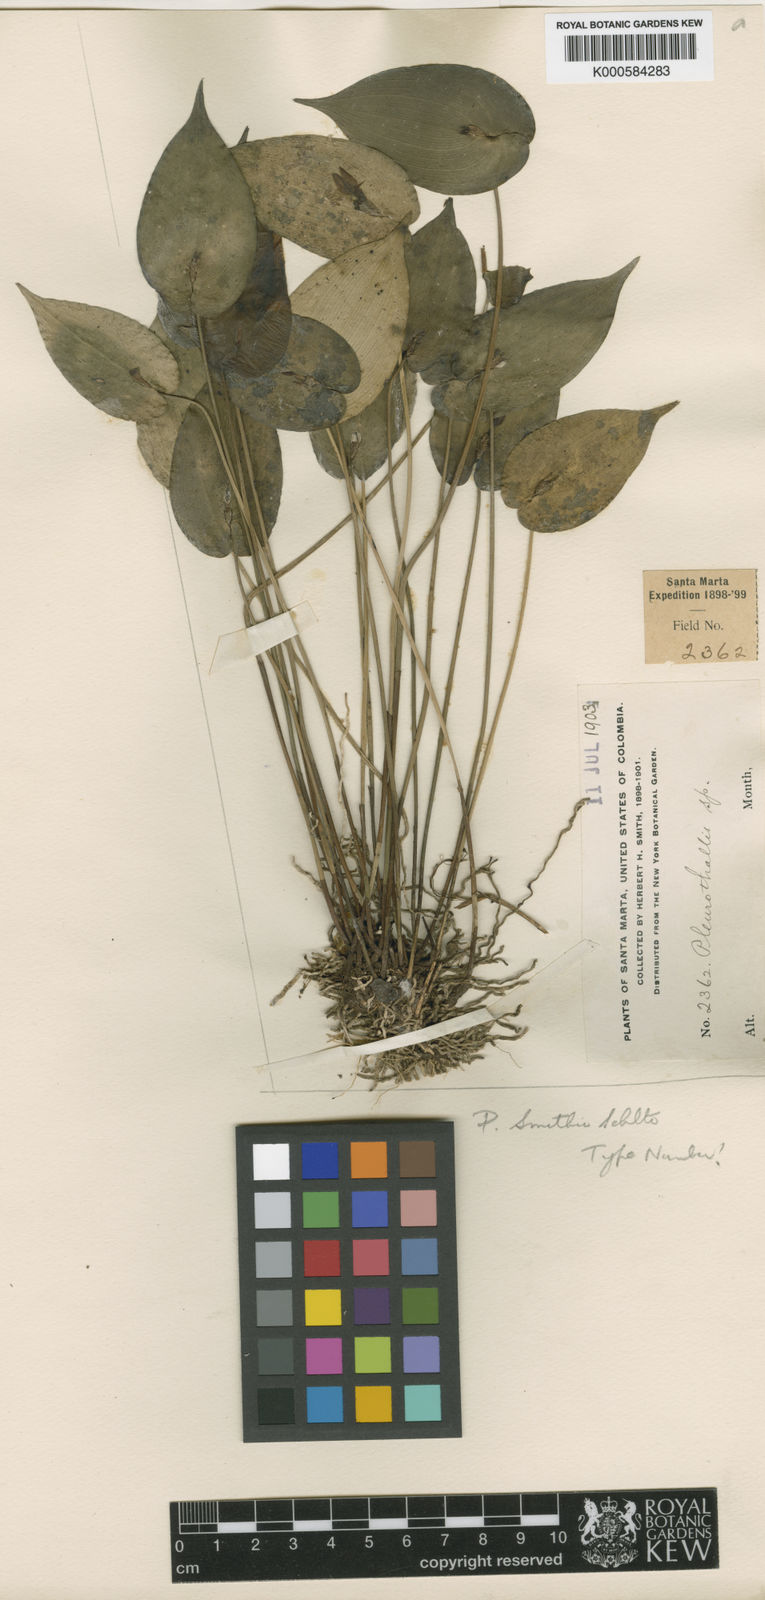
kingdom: Plantae
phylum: Tracheophyta
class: Liliopsida
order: Asparagales
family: Orchidaceae
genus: Pleurothallis
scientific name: Pleurothallis coriacardia
